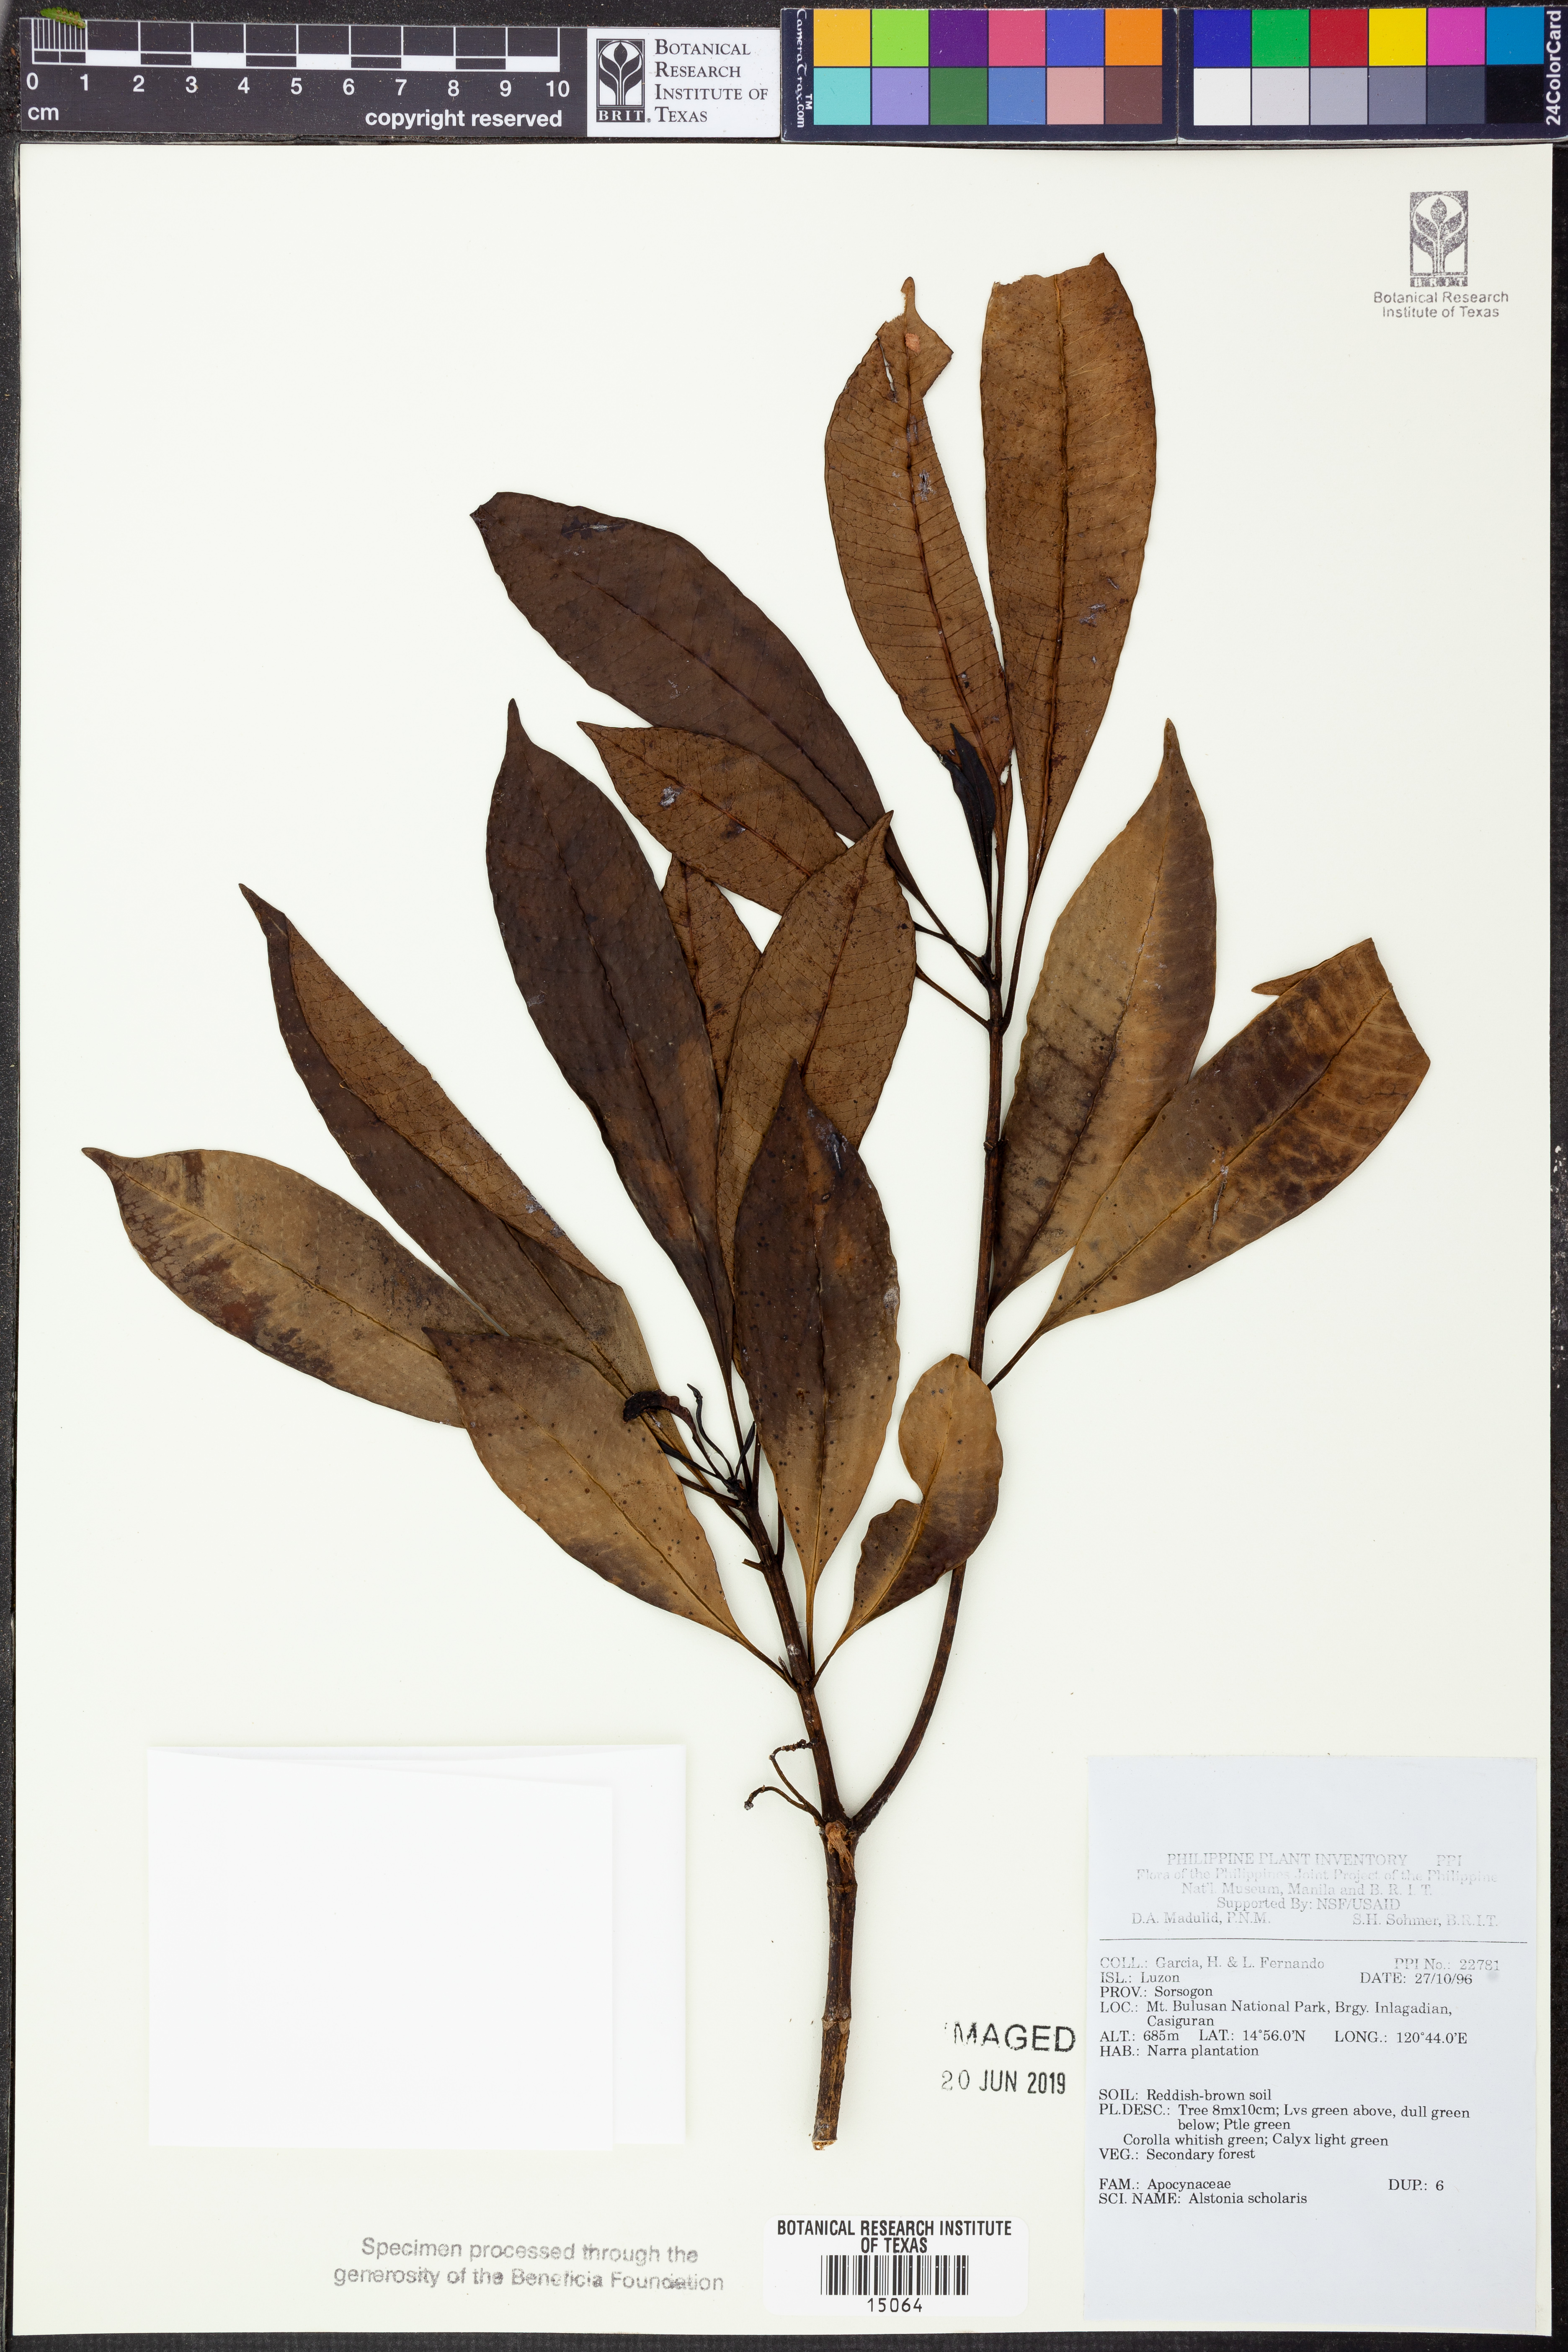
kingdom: Plantae
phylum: Tracheophyta
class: Magnoliopsida
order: Gentianales
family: Apocynaceae
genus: Alstonia
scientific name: Alstonia scholaris
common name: White cheesewood
